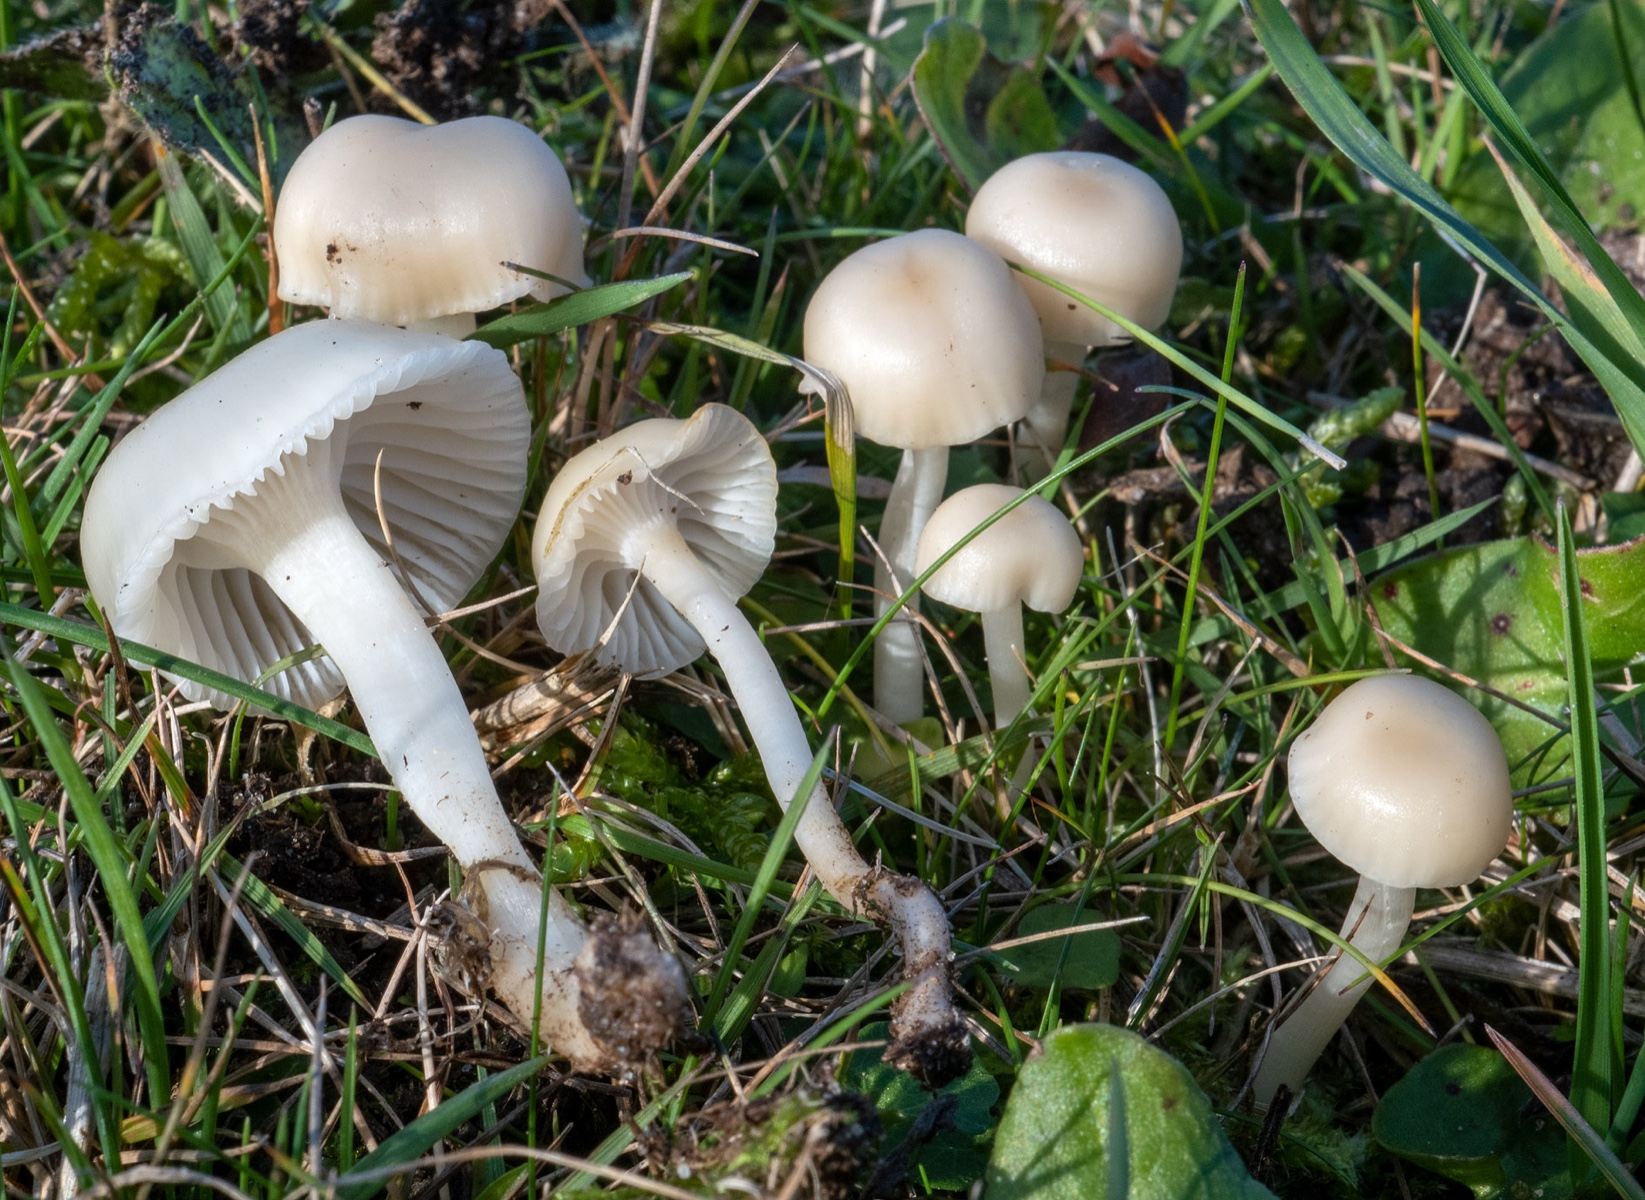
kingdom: Fungi
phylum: Basidiomycota
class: Agaricomycetes
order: Agaricales
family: Hygrophoraceae
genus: Cuphophyllus
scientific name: Cuphophyllus russocoriaceus
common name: ruslæder-vokshat
